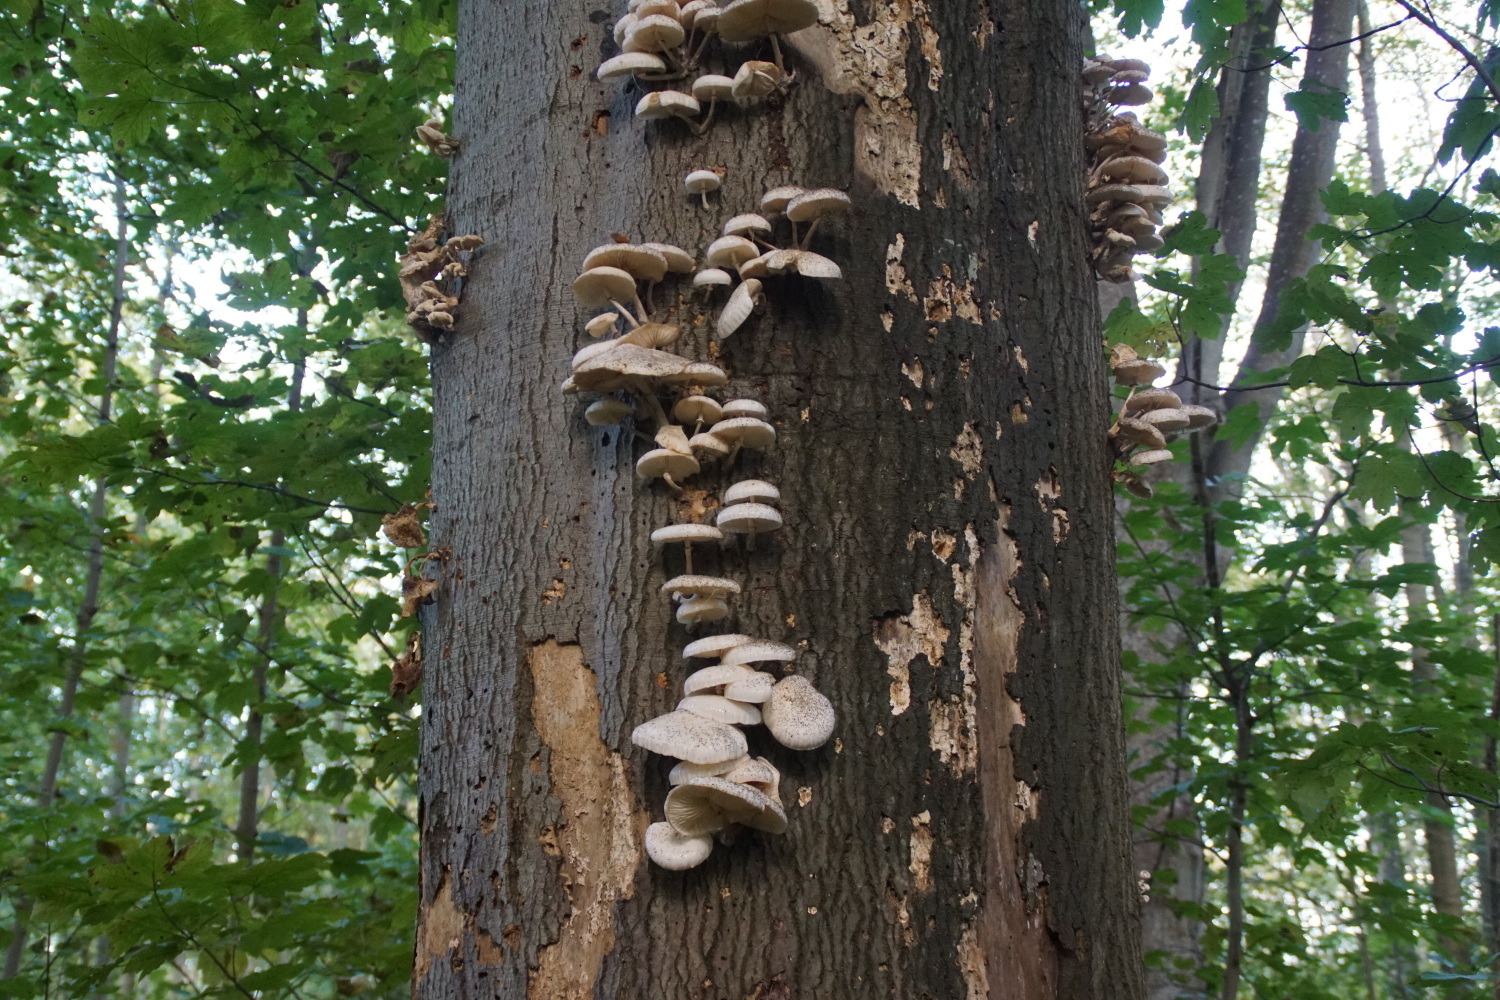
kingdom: Fungi
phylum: Basidiomycota
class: Agaricomycetes
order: Agaricales
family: Physalacriaceae
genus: Mucidula
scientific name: Mucidula mucida
